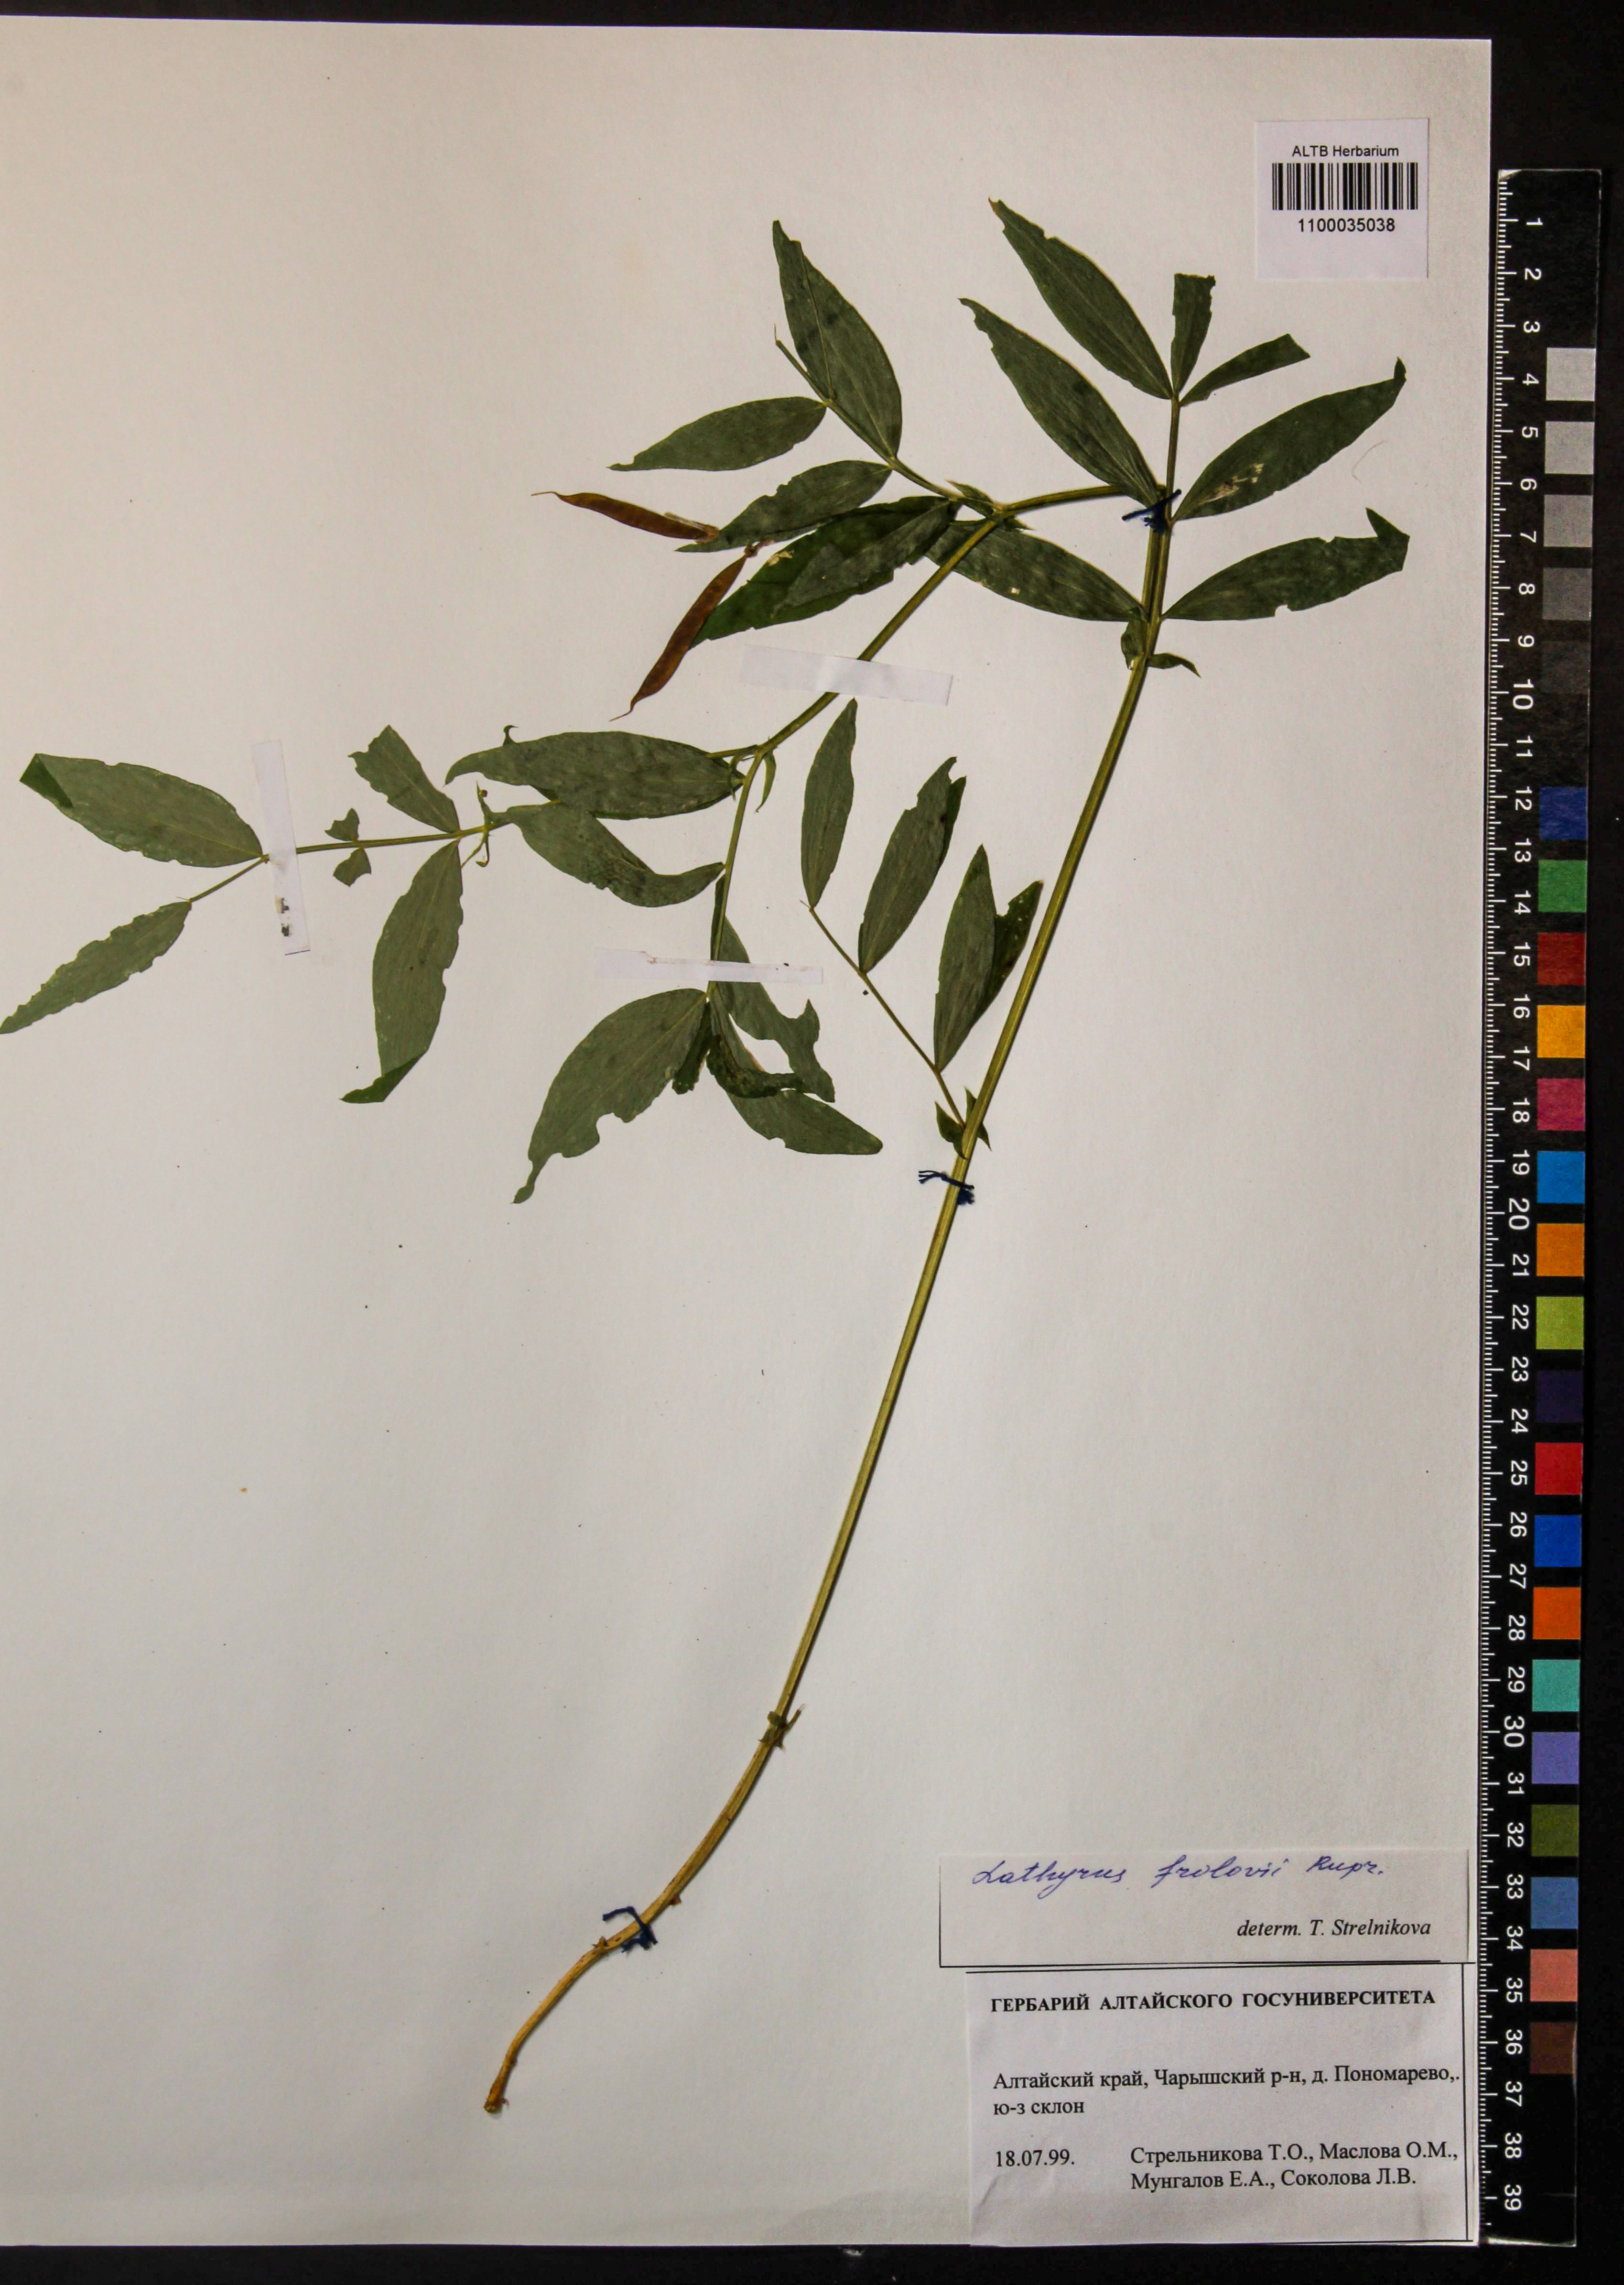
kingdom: Plantae
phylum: Tracheophyta
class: Magnoliopsida
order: Fabales
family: Fabaceae
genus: Lathyrus
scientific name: Lathyrus frolovii
